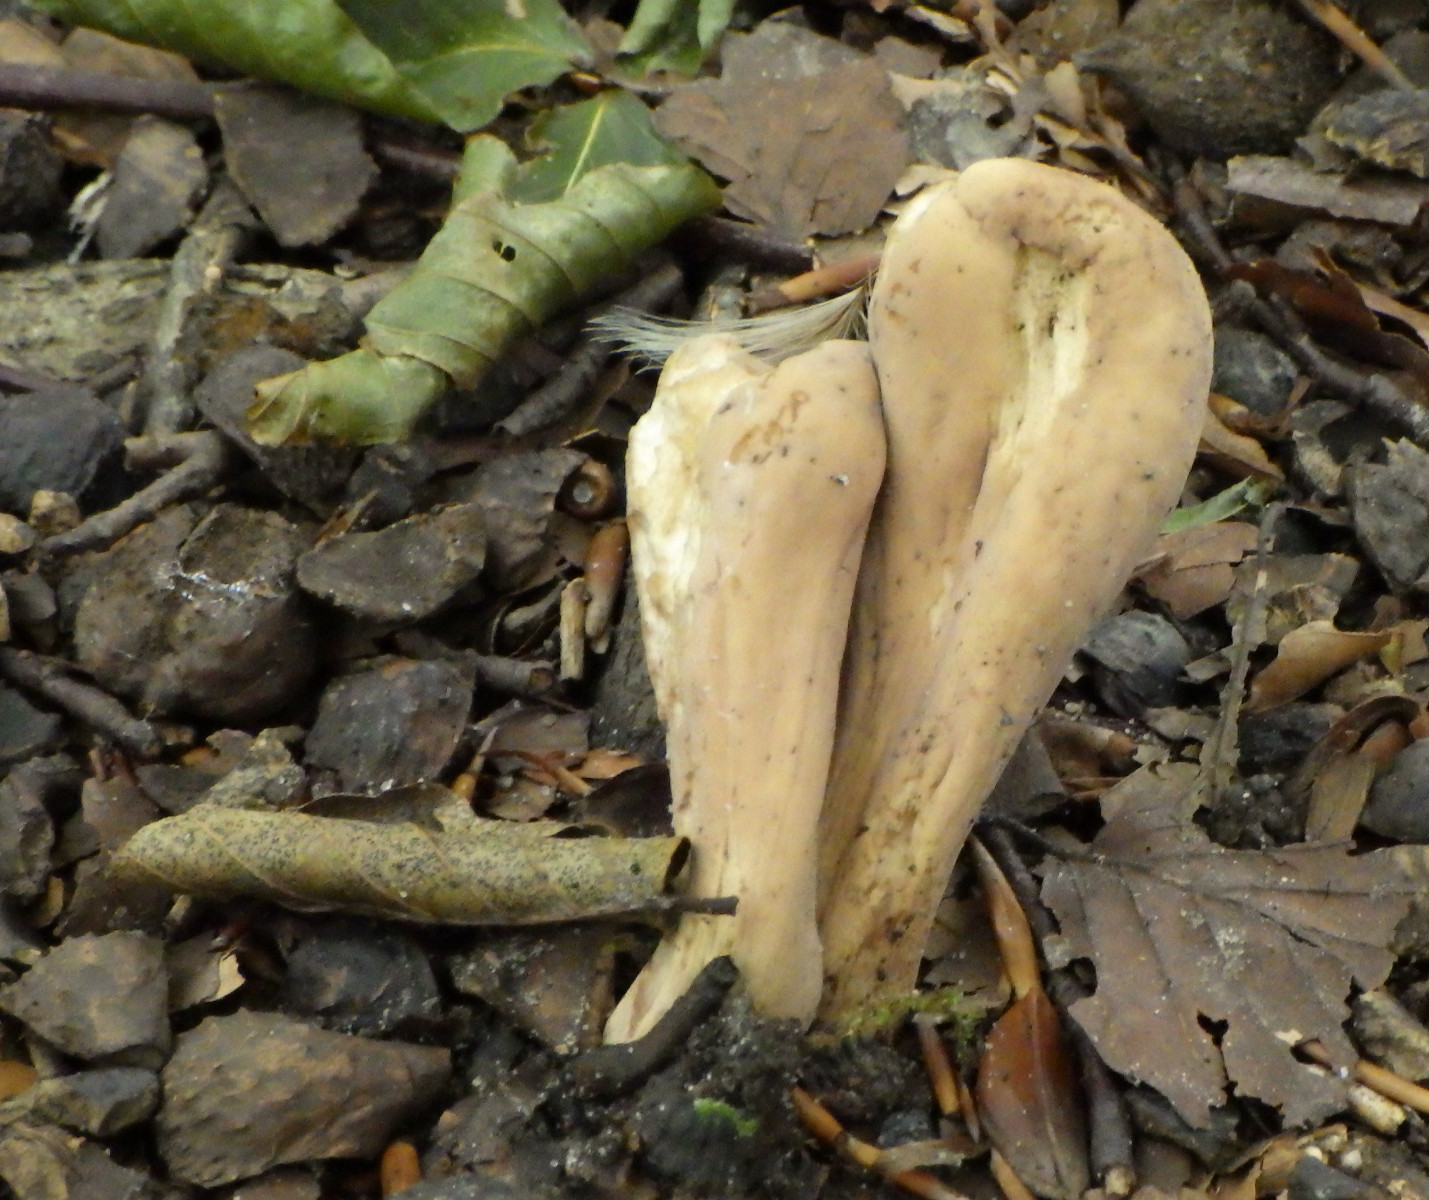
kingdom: Fungi
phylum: Basidiomycota
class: Agaricomycetes
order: Gomphales
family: Clavariadelphaceae
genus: Clavariadelphus
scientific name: Clavariadelphus pistillaris
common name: herkules-kæmpekølle
